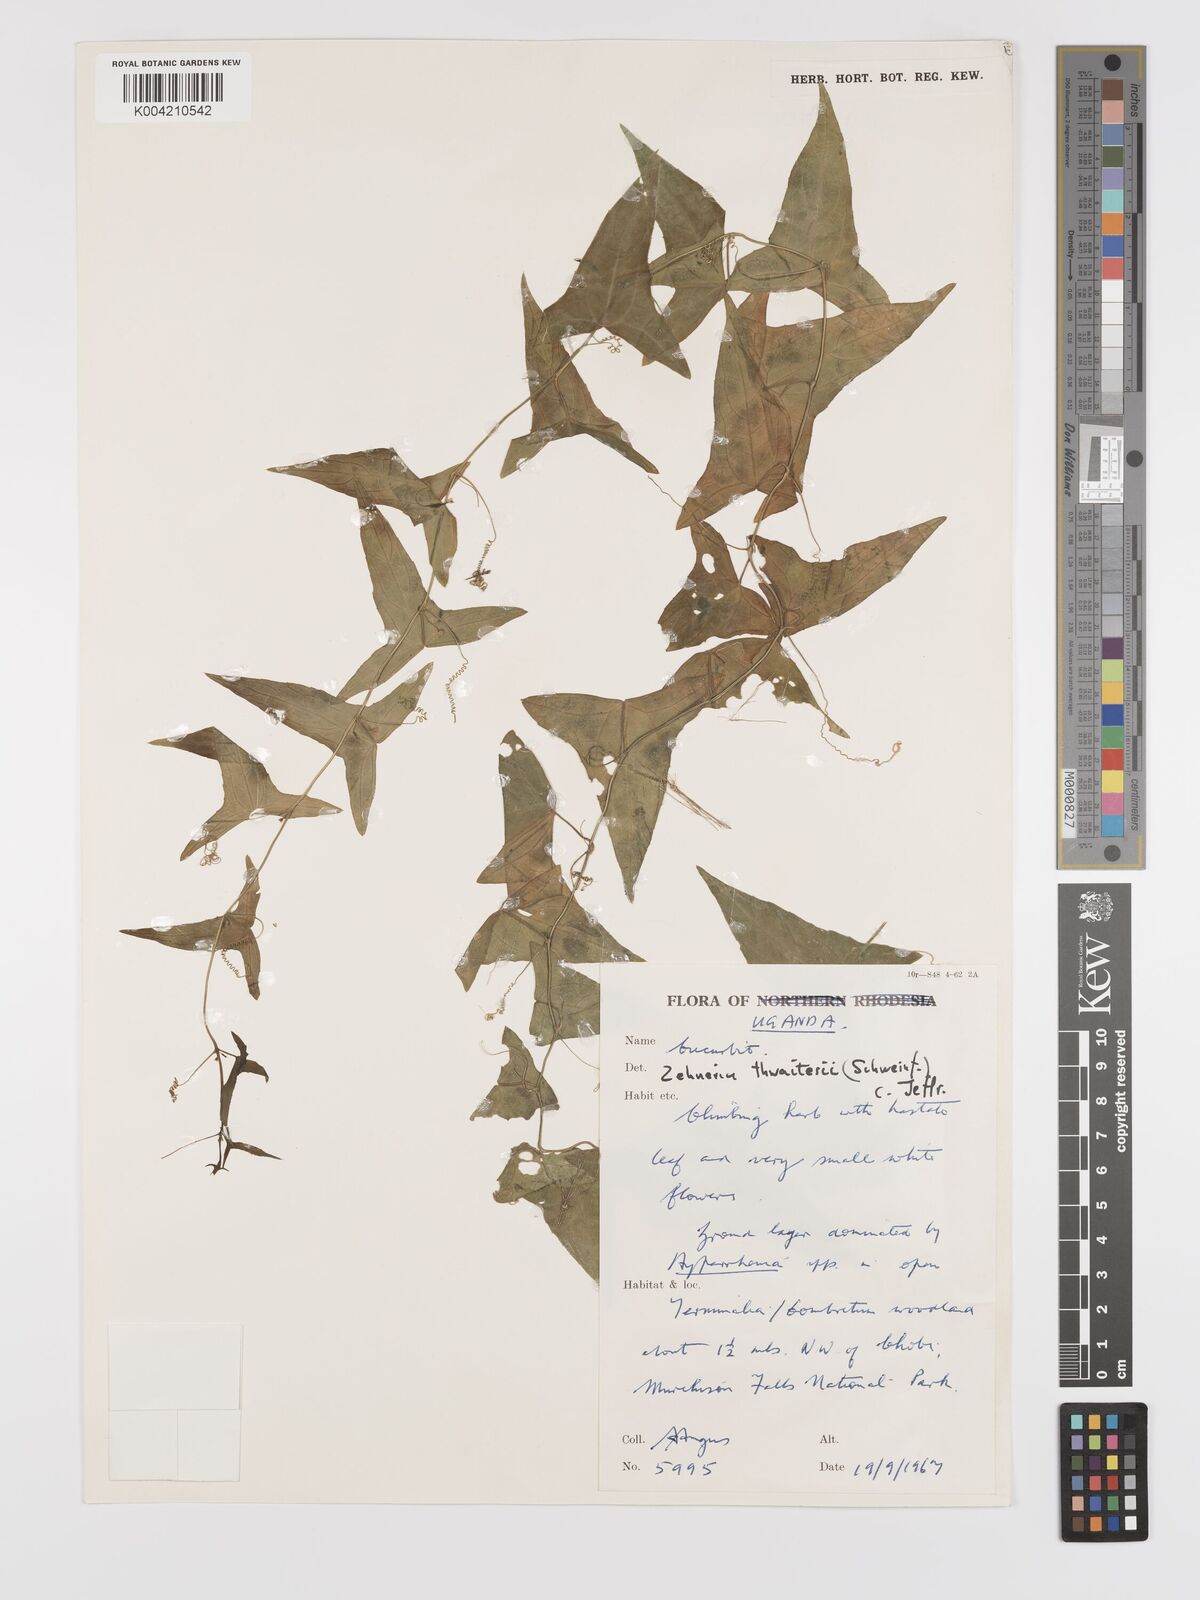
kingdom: Plantae
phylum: Tracheophyta
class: Magnoliopsida
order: Cucurbitales
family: Cucurbitaceae
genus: Zehneria
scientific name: Zehneria thwaitesii
